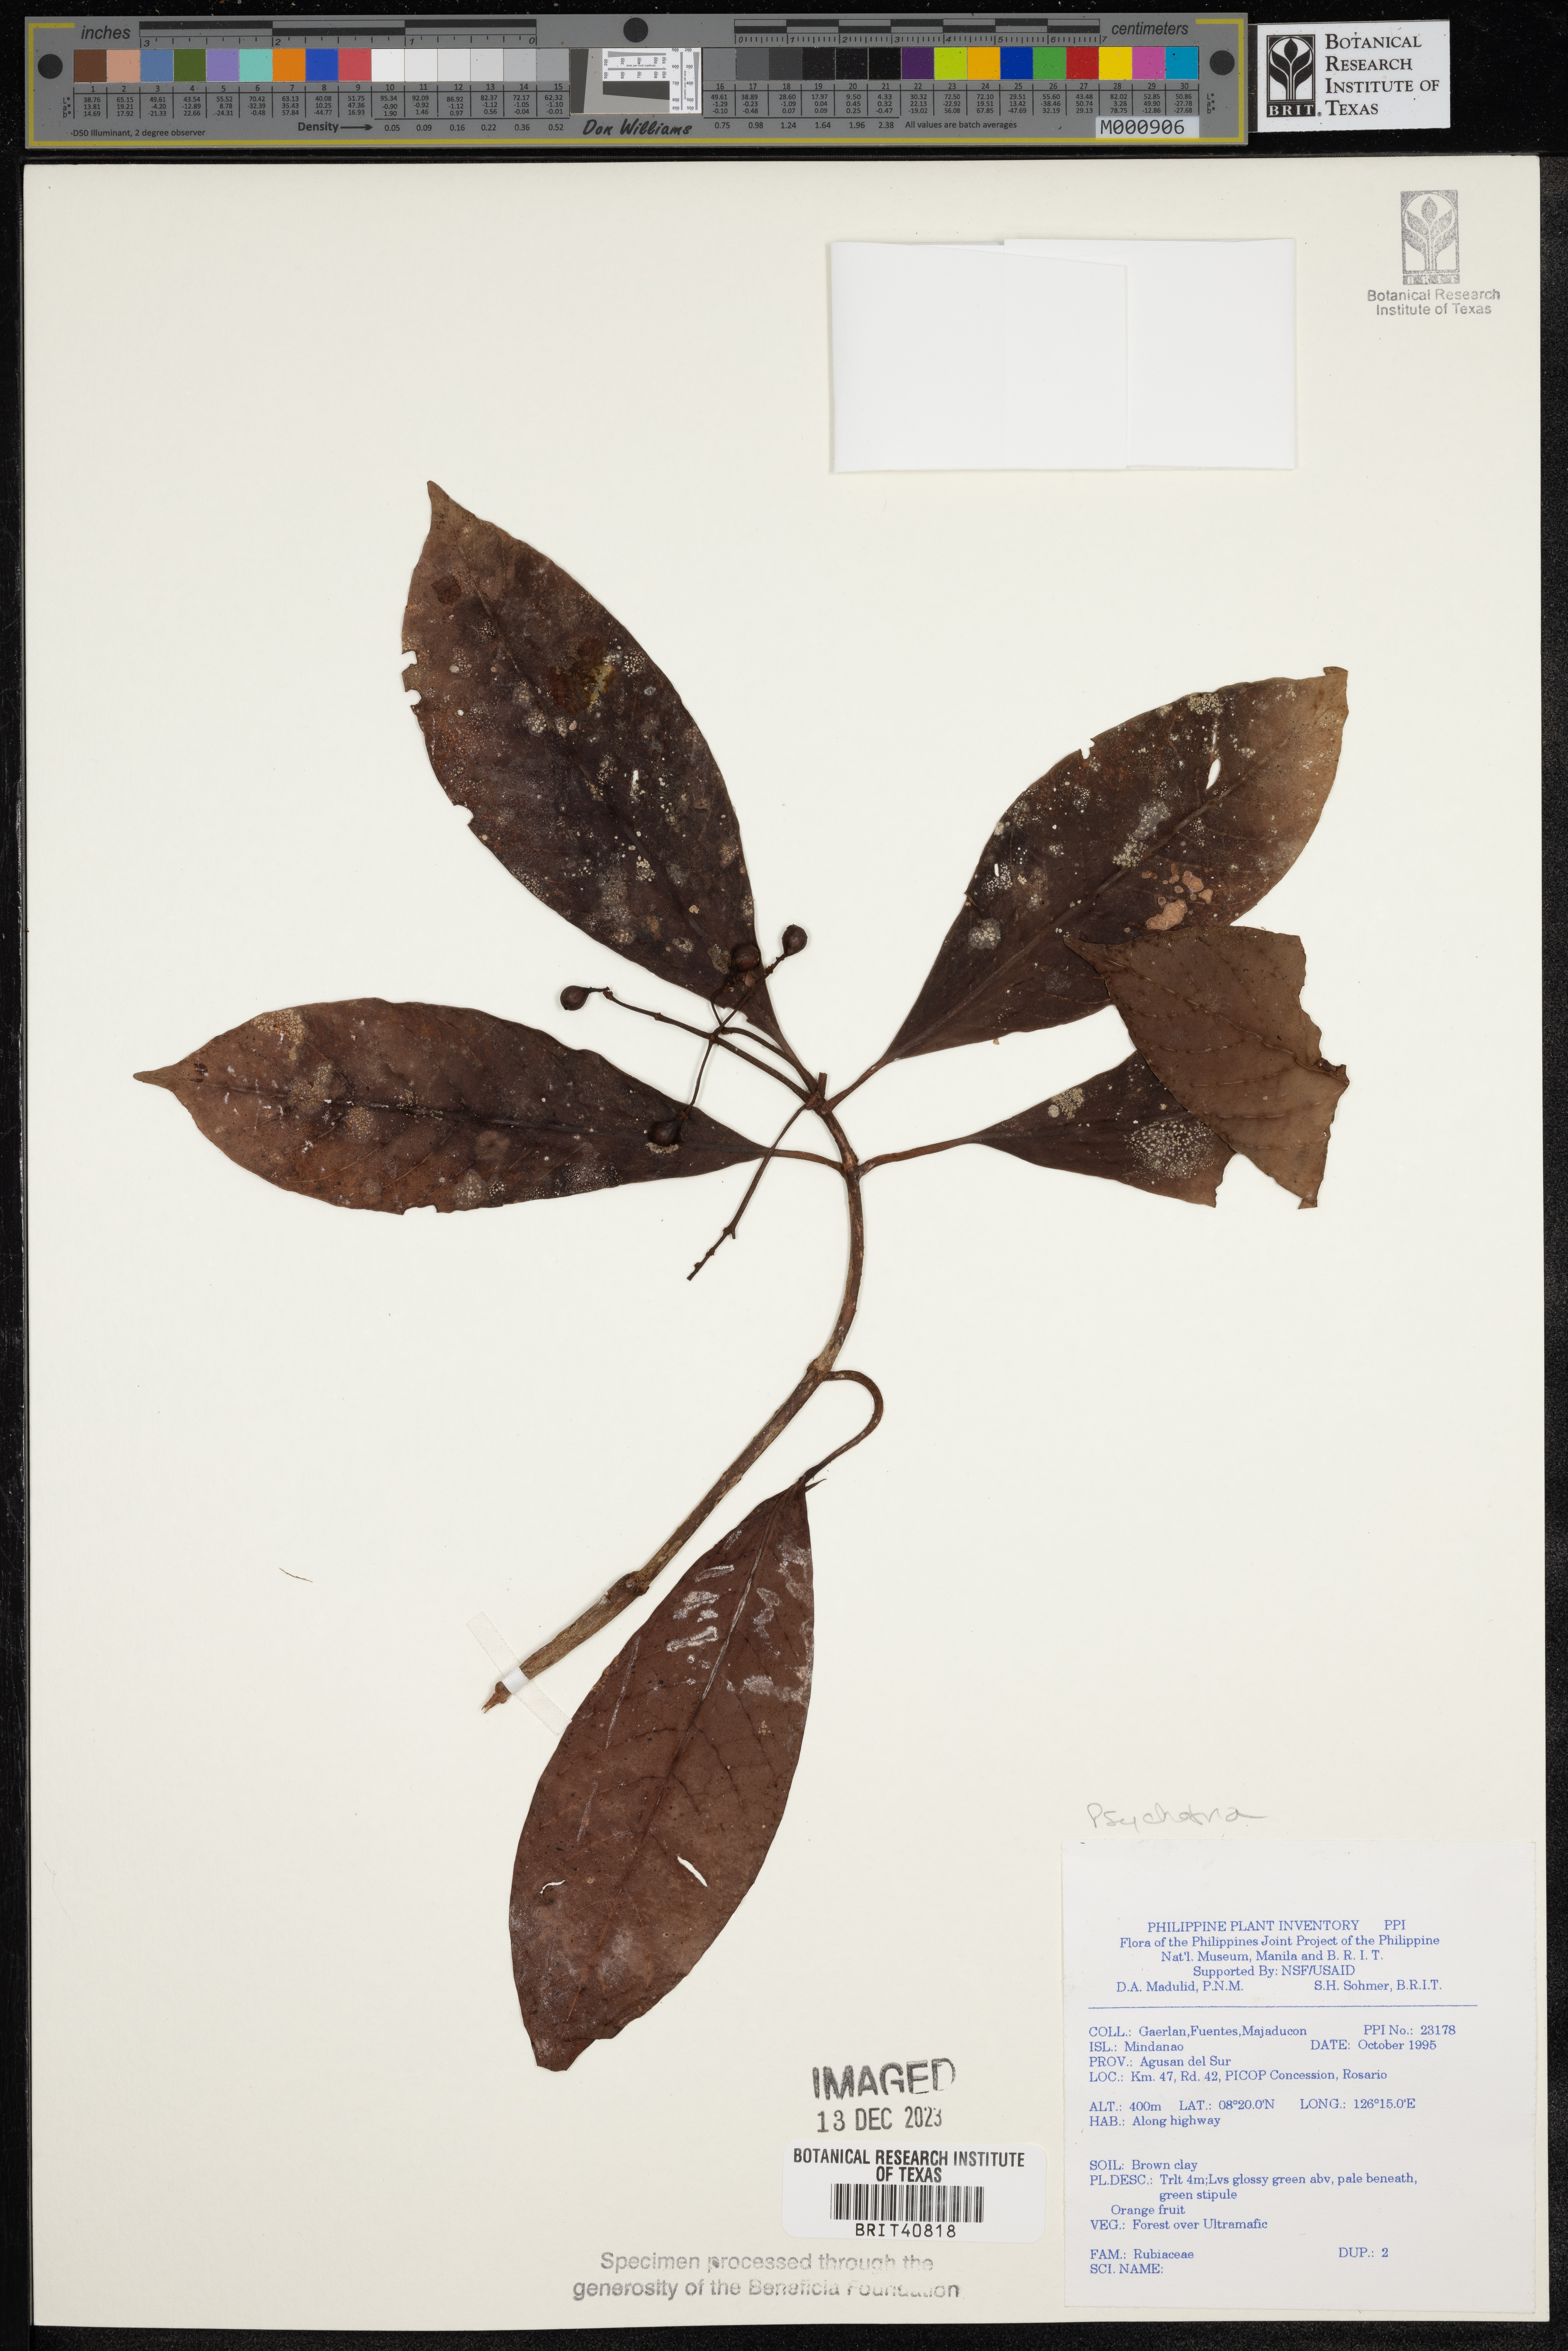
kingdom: Plantae
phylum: Tracheophyta
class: Magnoliopsida
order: Gentianales
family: Rubiaceae
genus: Psychotria
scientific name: Psychotria
